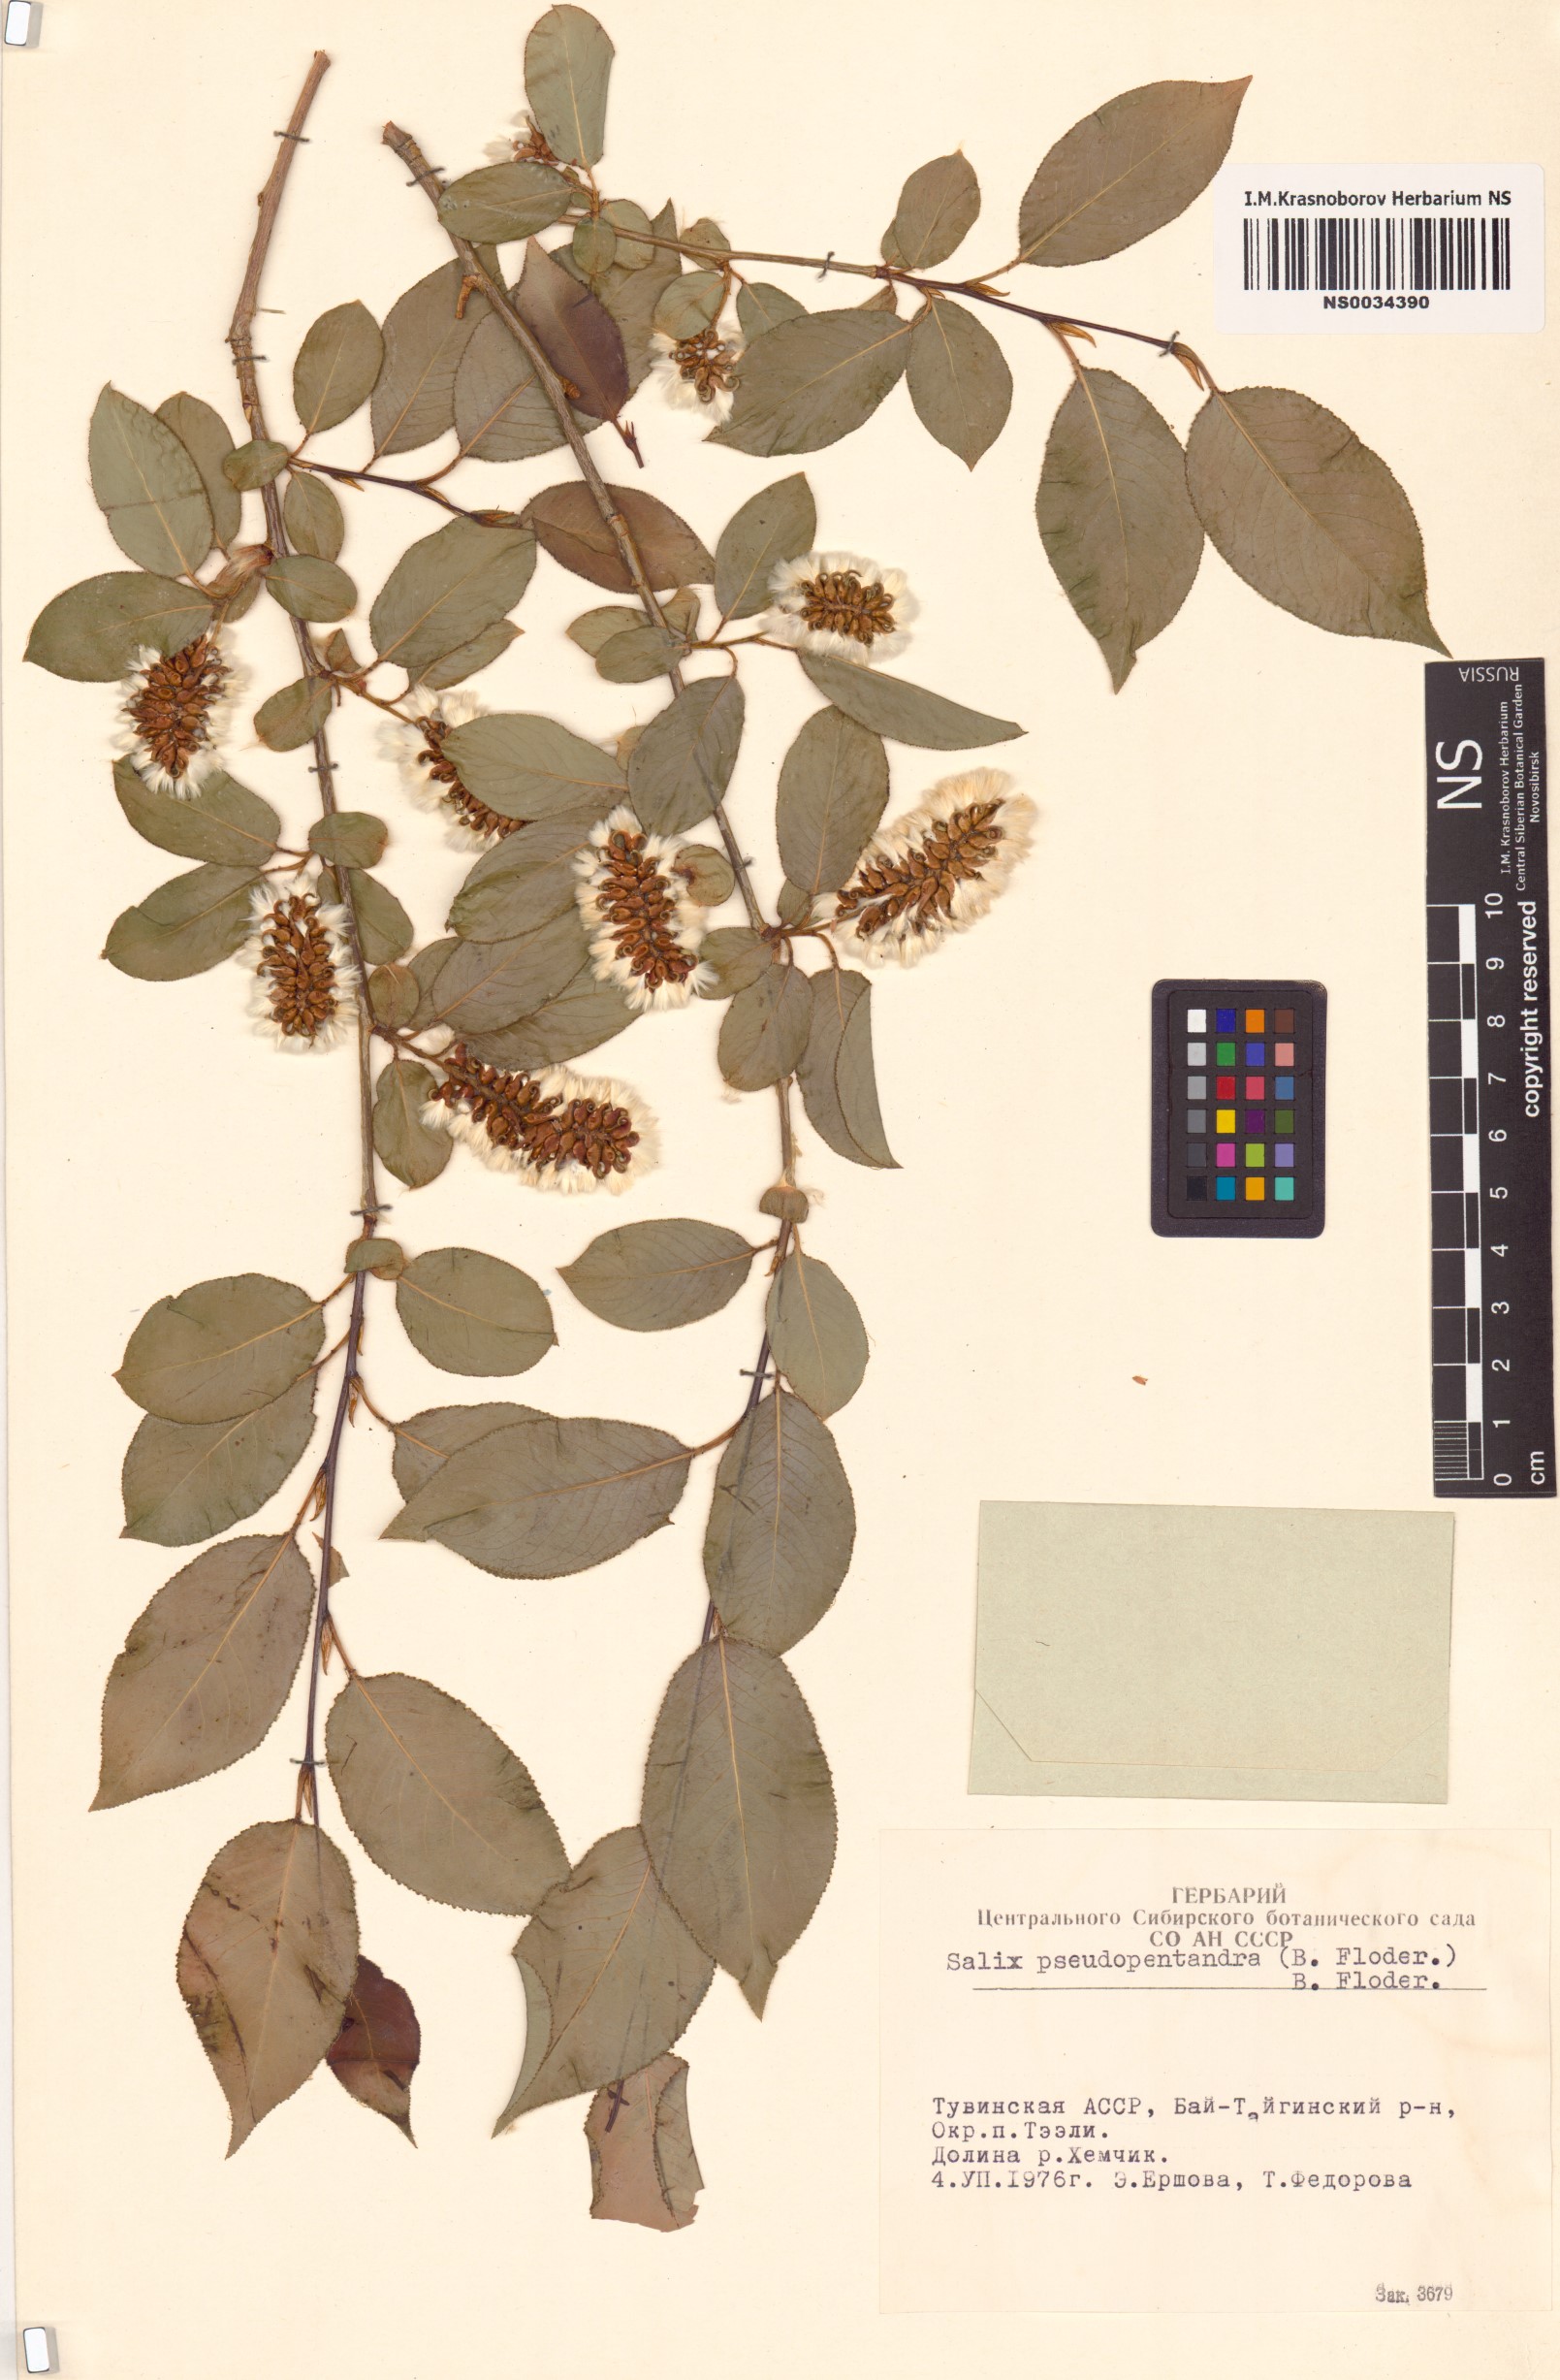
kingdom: Plantae
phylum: Tracheophyta
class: Magnoliopsida
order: Malpighiales
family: Salicaceae
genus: Salix
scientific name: Salix pseudopentandra
